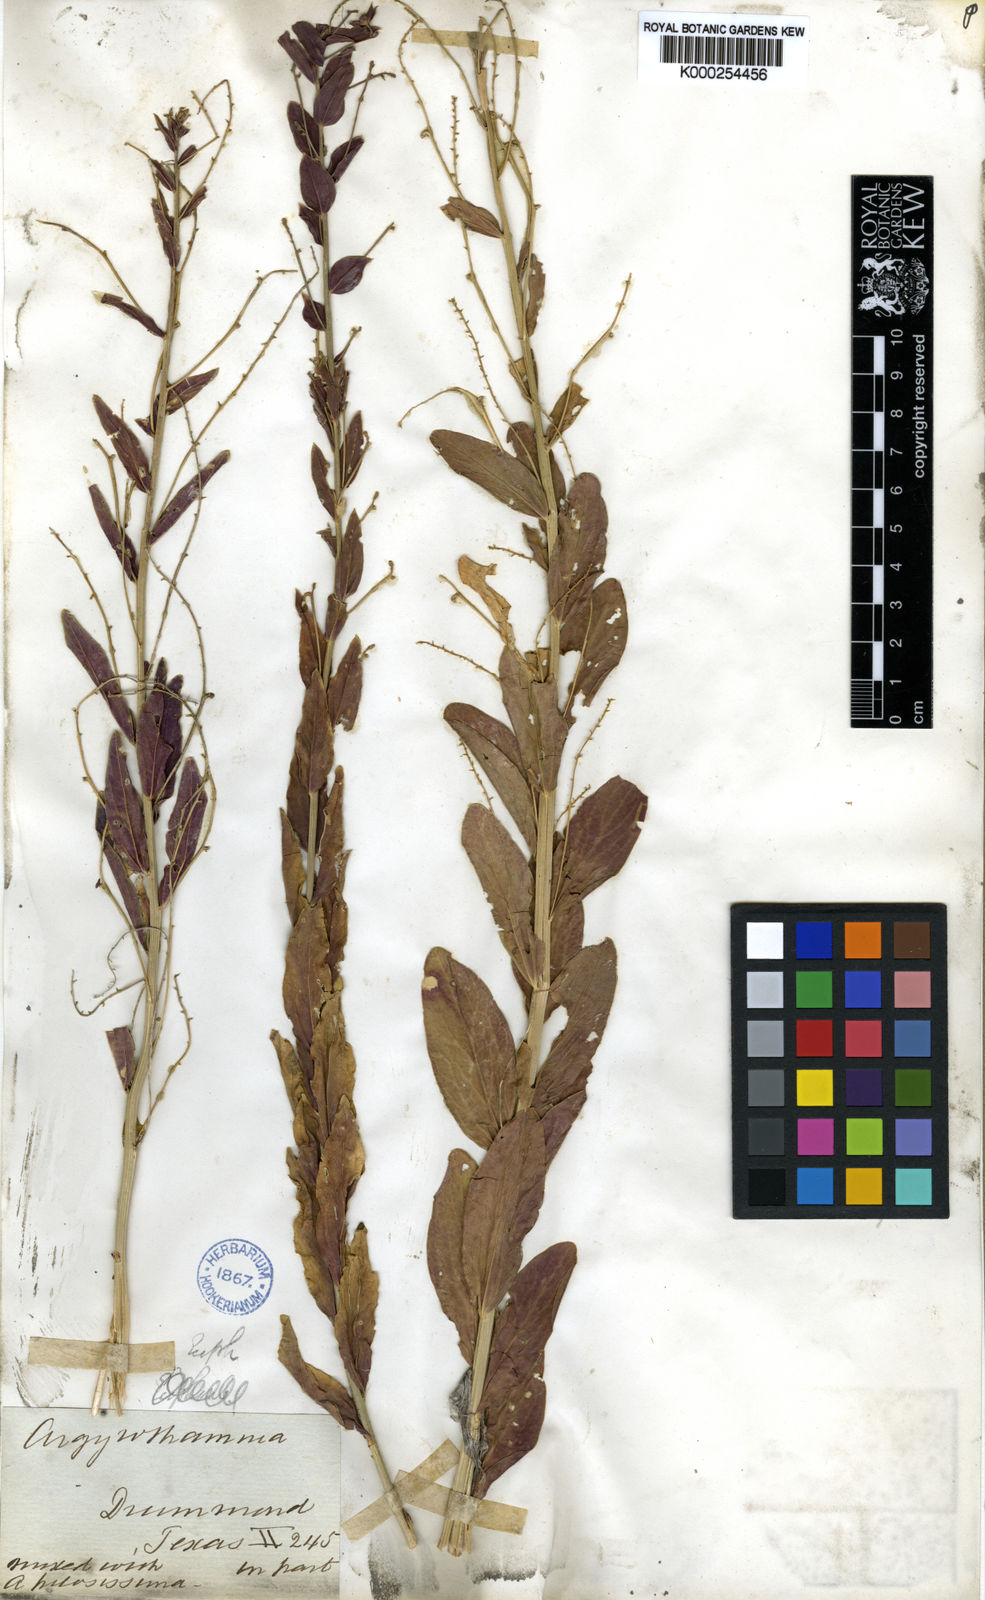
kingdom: Plantae
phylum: Tracheophyta
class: Magnoliopsida
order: Malpighiales
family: Euphorbiaceae
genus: Ditaxis
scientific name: Ditaxis mercurialina
